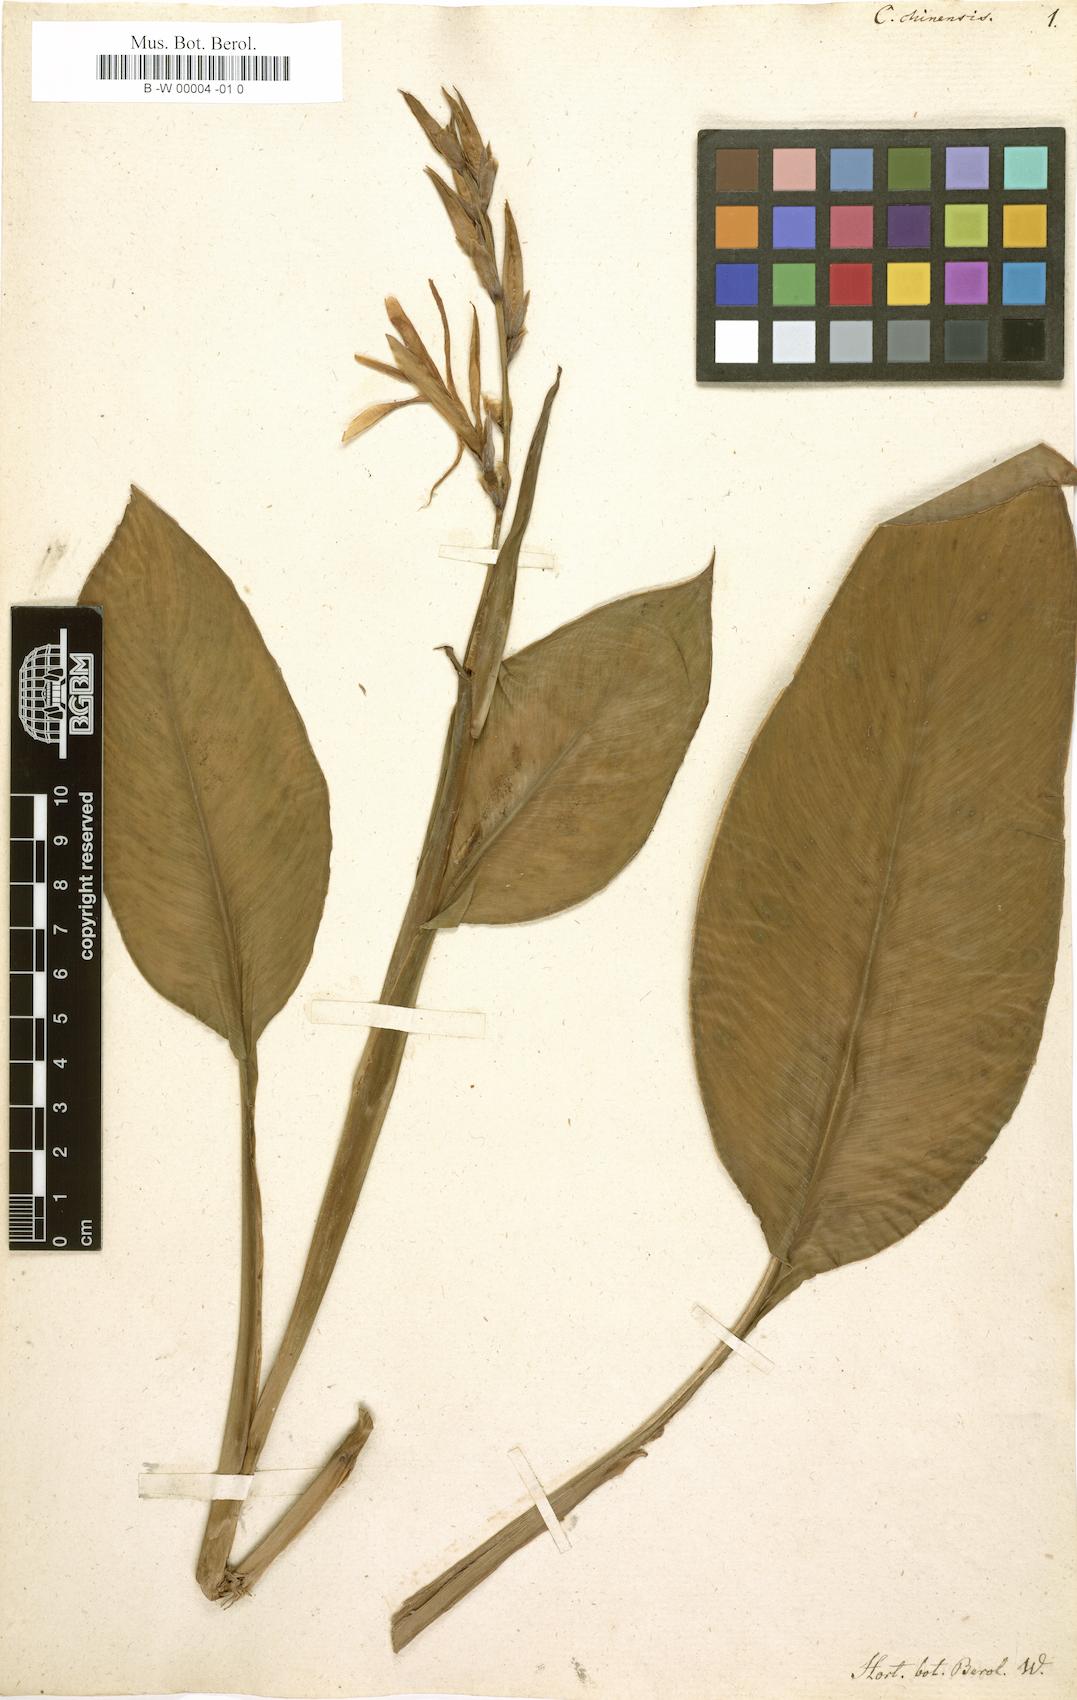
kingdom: Plantae
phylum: Tracheophyta
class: Liliopsida
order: Zingiberales
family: Cannaceae
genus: Canna
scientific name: Canna indica
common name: Indian shot
